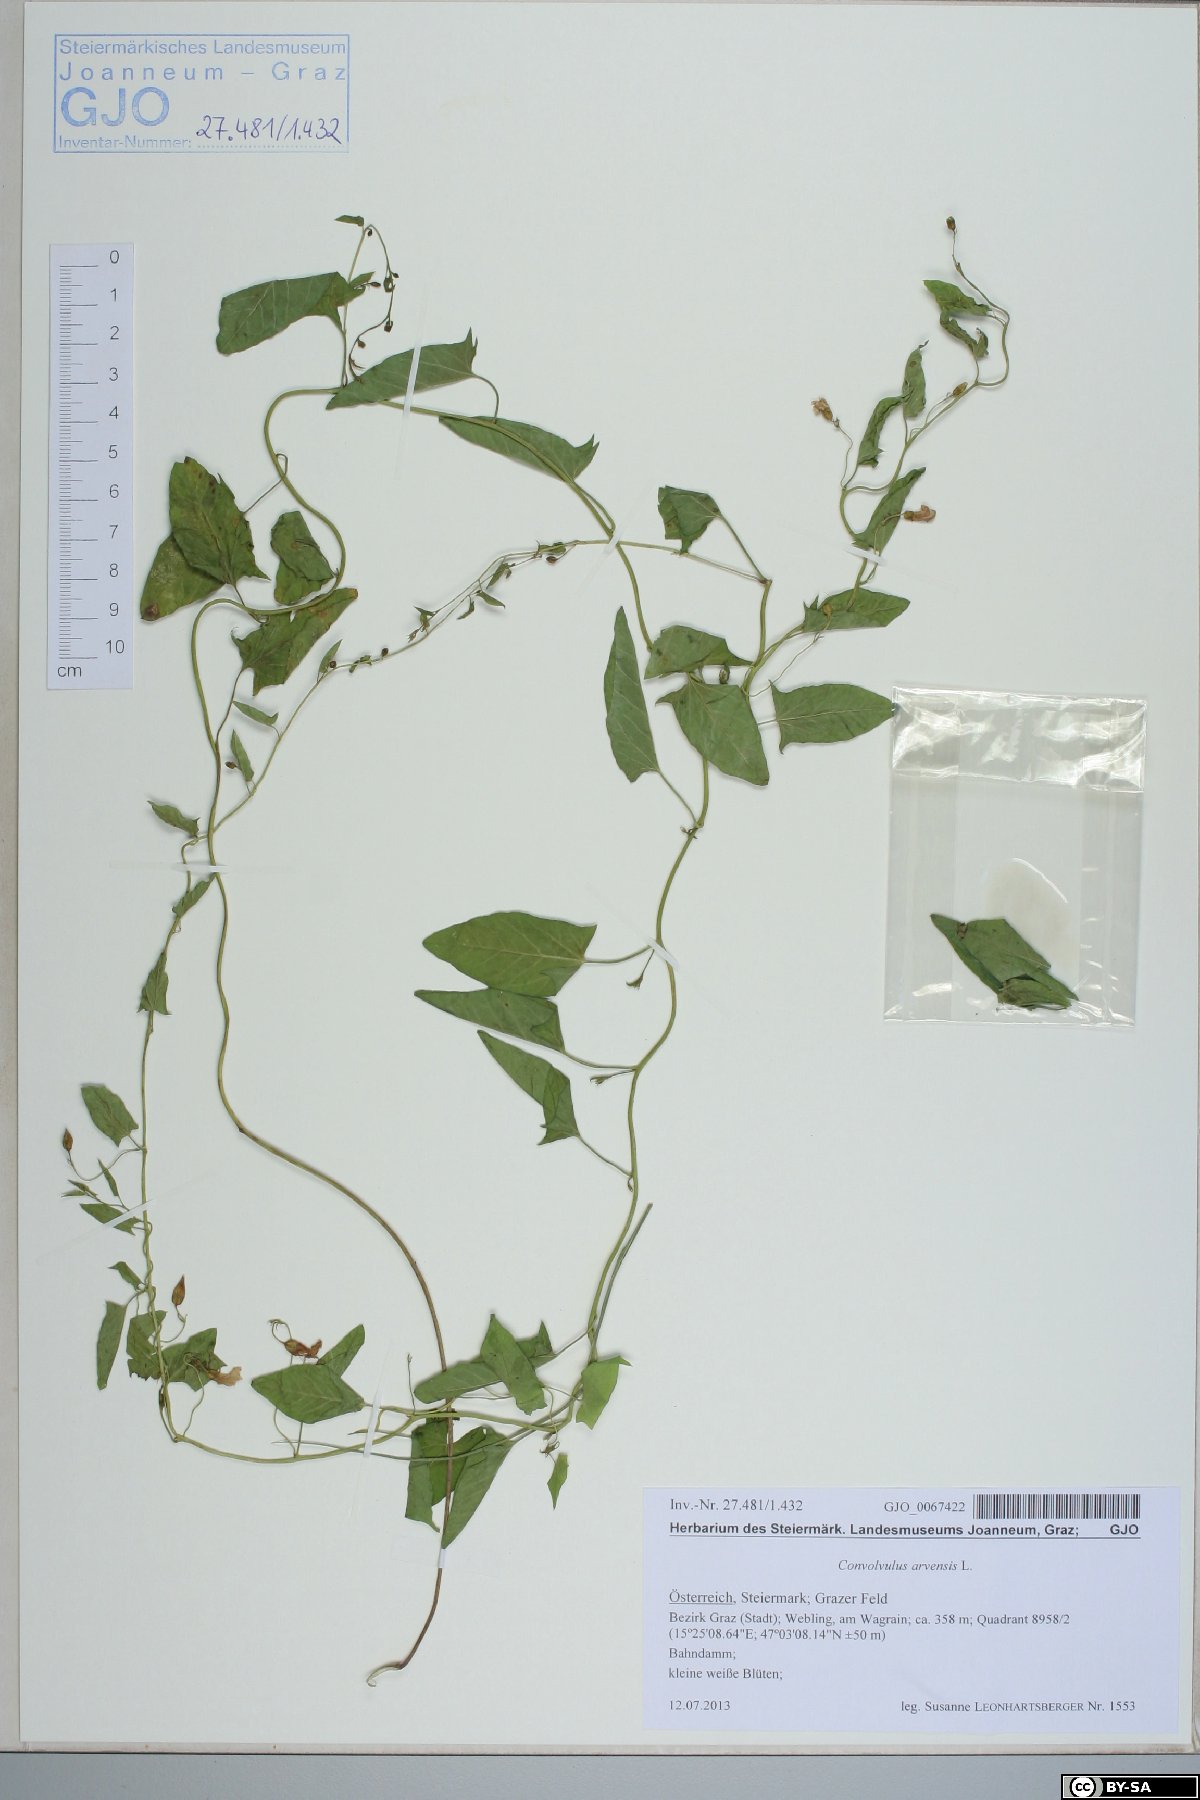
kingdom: Plantae
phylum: Tracheophyta
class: Magnoliopsida
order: Solanales
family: Convolvulaceae
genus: Convolvulus
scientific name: Convolvulus arvensis
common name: Field bindweed
